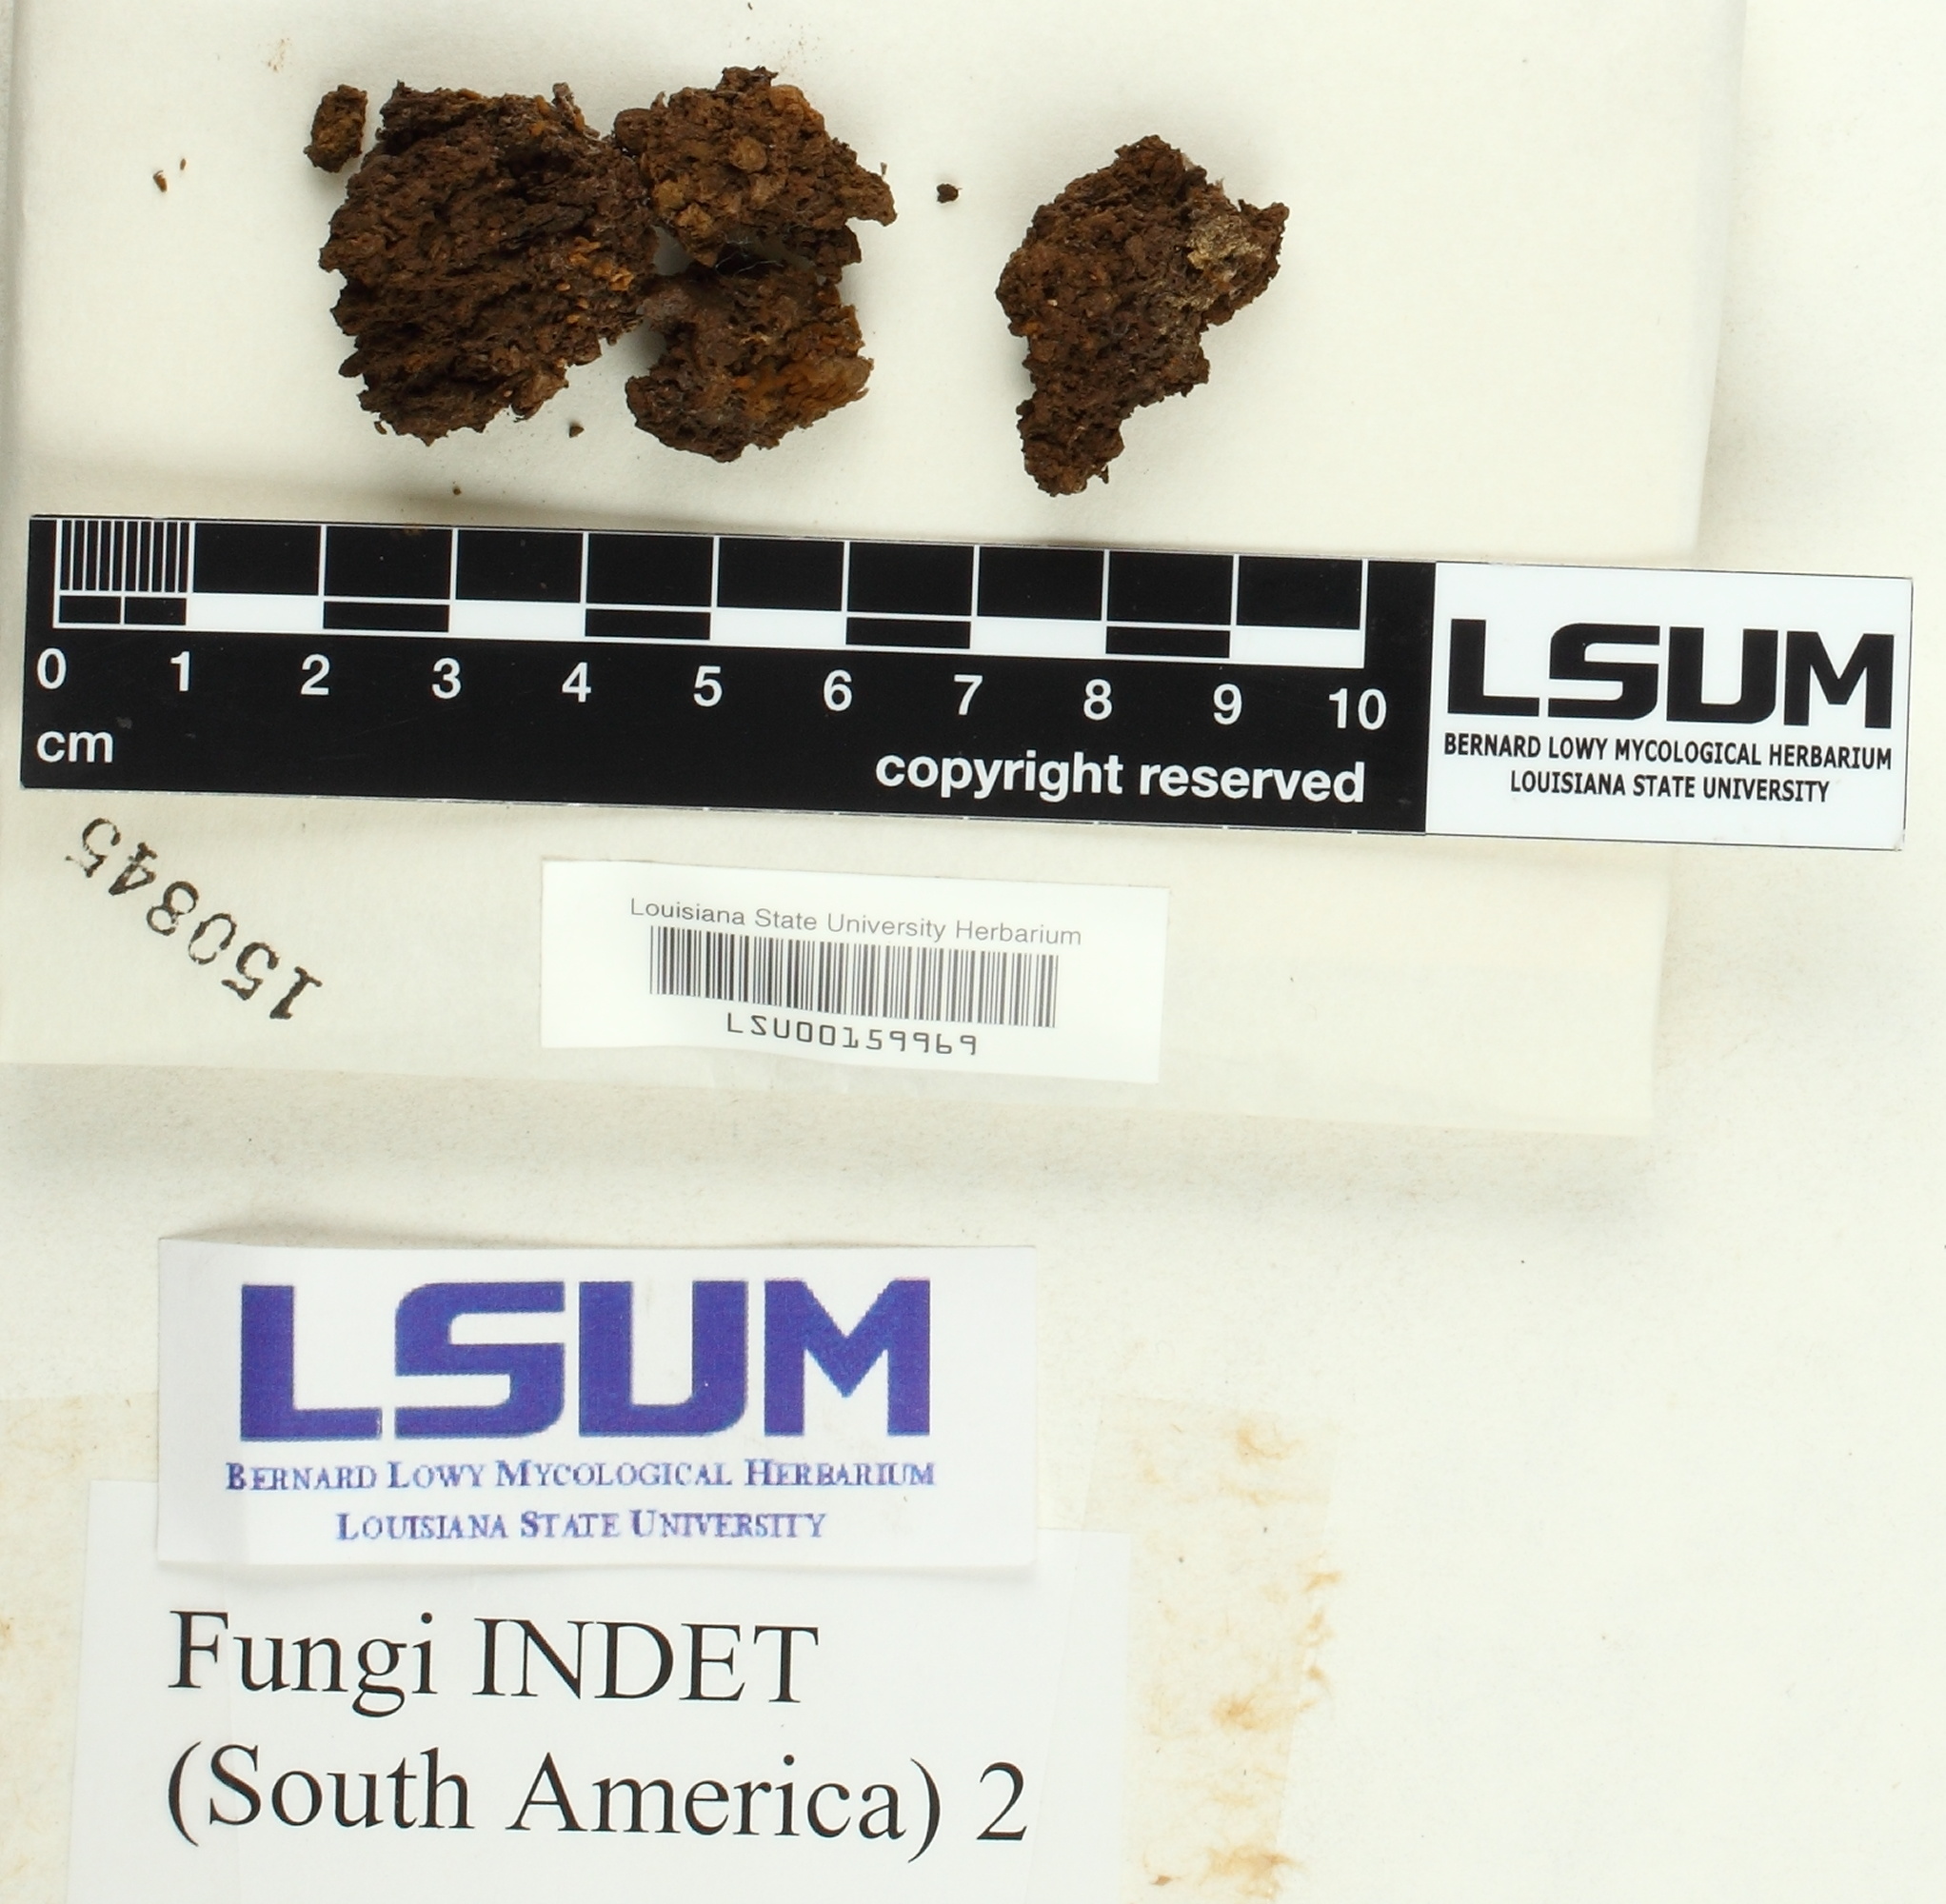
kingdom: Fungi
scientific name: Fungi
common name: Fungi
